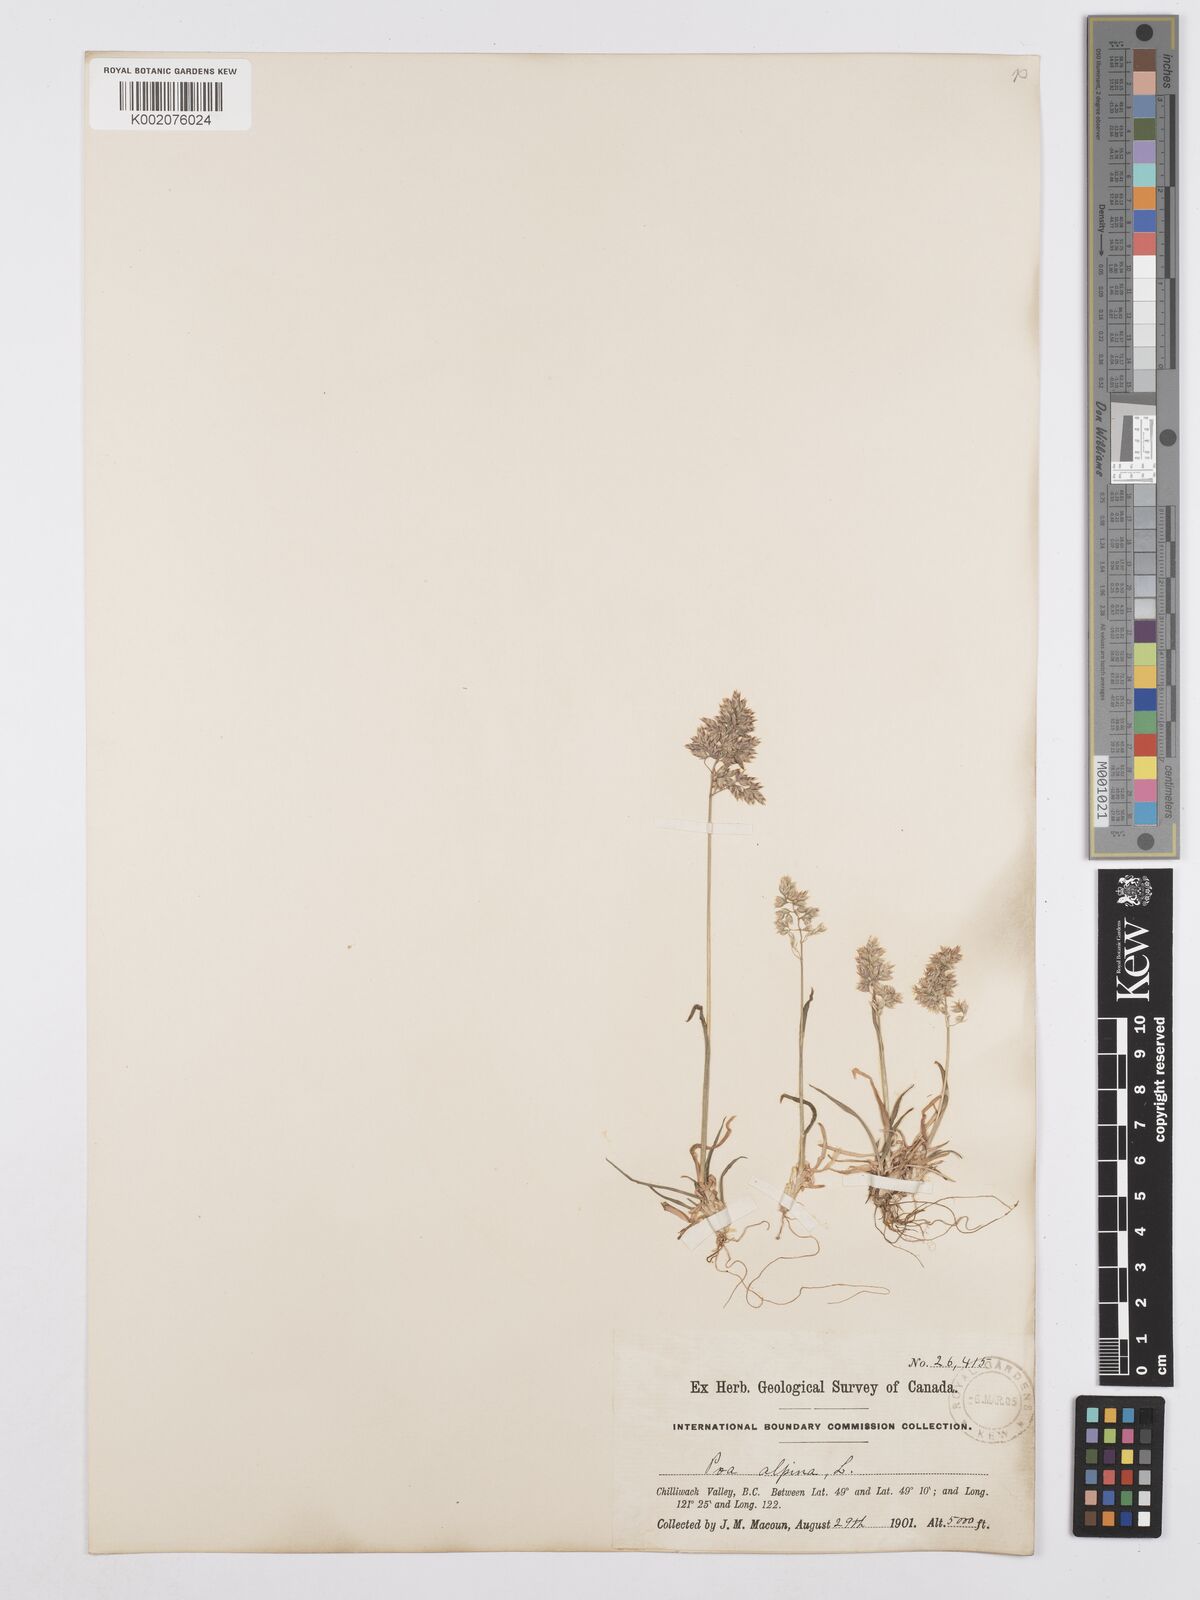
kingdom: Plantae
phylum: Tracheophyta
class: Liliopsida
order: Poales
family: Poaceae
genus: Poa
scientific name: Poa alpina
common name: Alpine bluegrass
